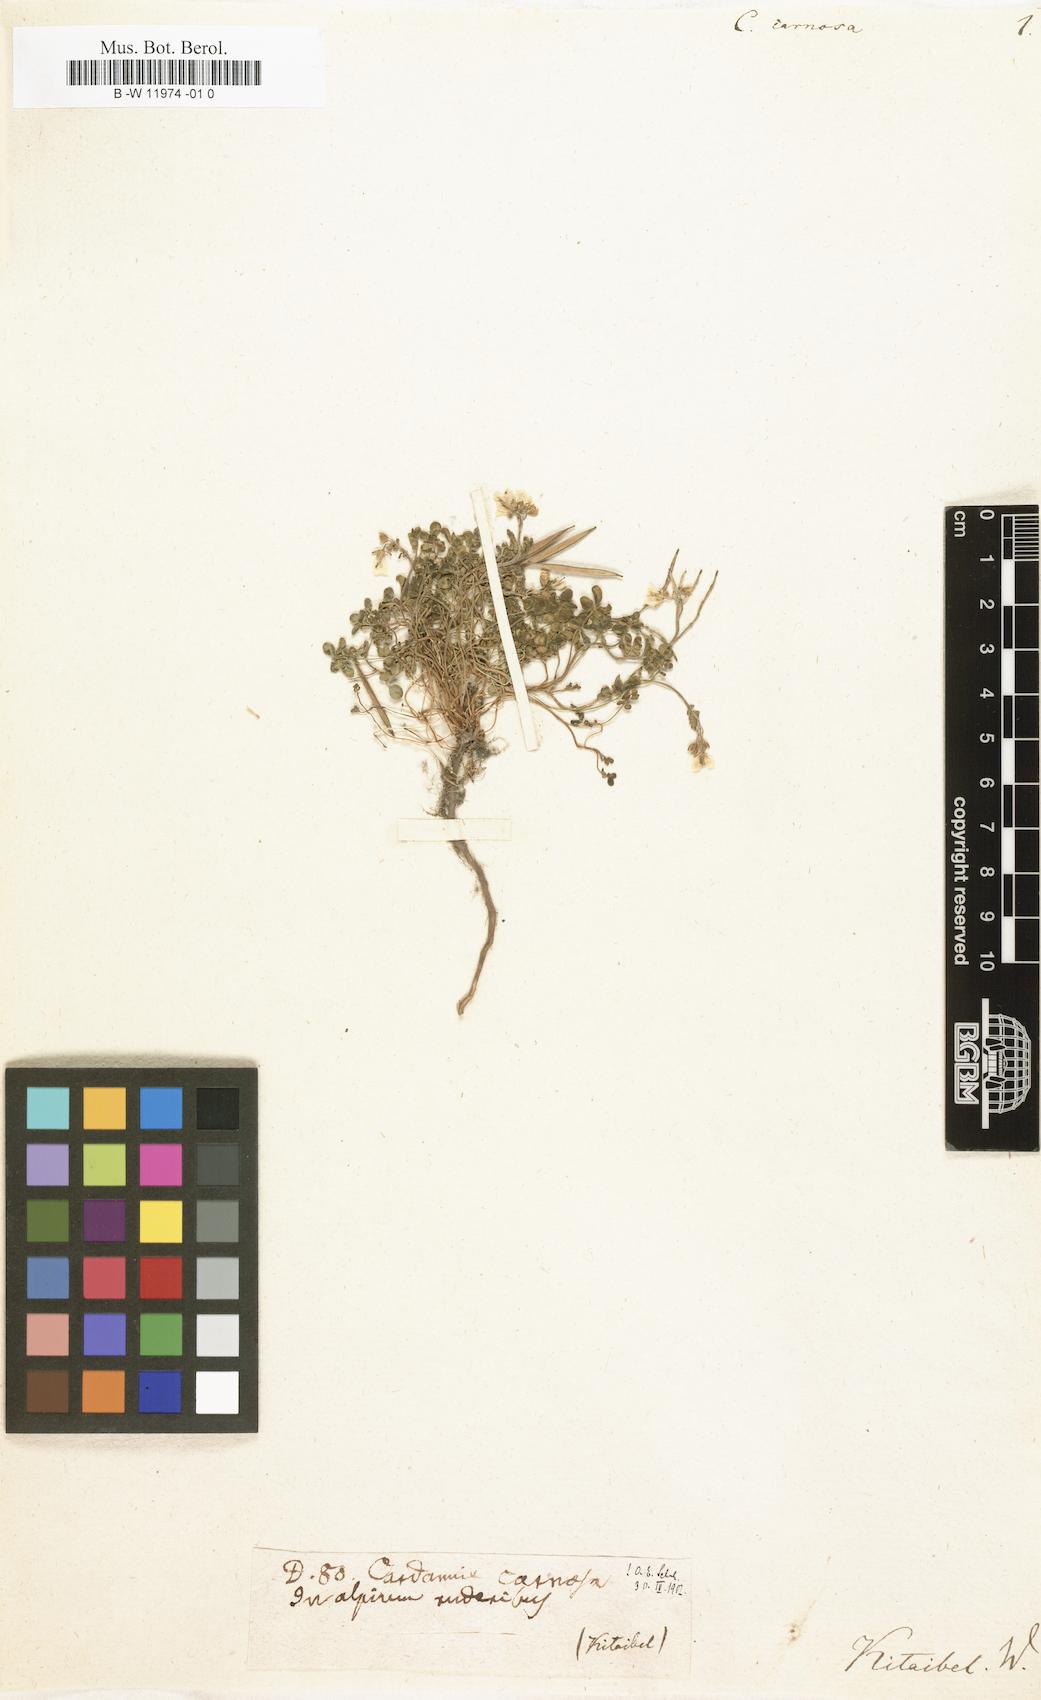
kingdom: Plantae
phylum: Tracheophyta
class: Magnoliopsida
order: Brassicales
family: Brassicaceae
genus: Cardamine
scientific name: Cardamine carnosa
